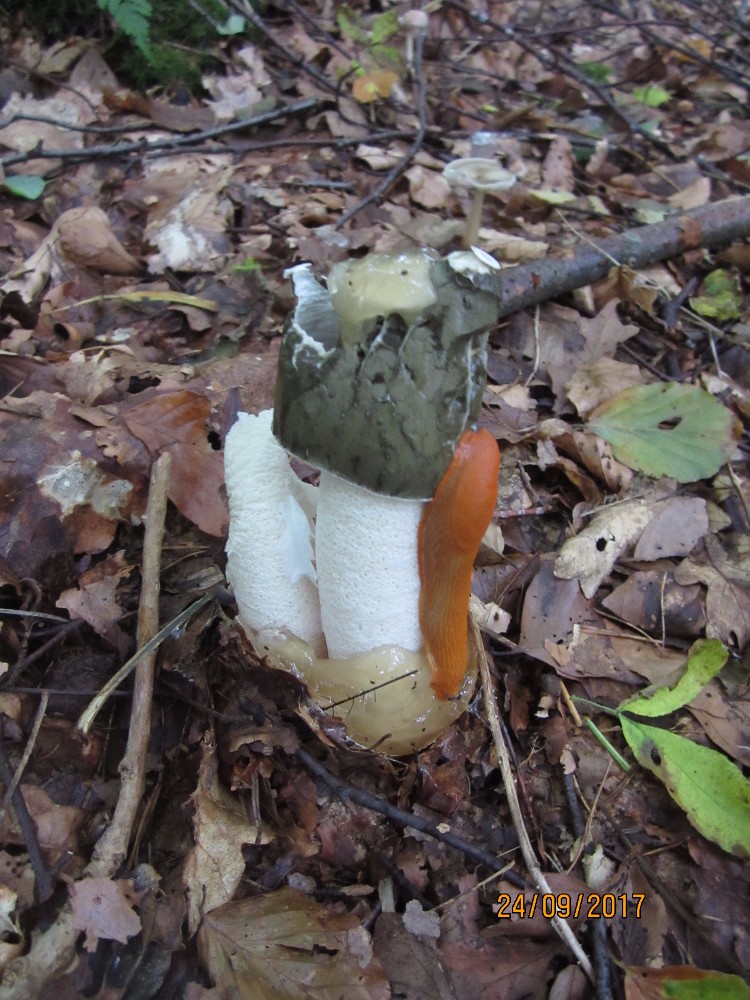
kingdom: Fungi
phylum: Basidiomycota
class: Agaricomycetes
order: Phallales
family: Phallaceae
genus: Phallus
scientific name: Phallus impudicus
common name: almindelig stinksvamp
